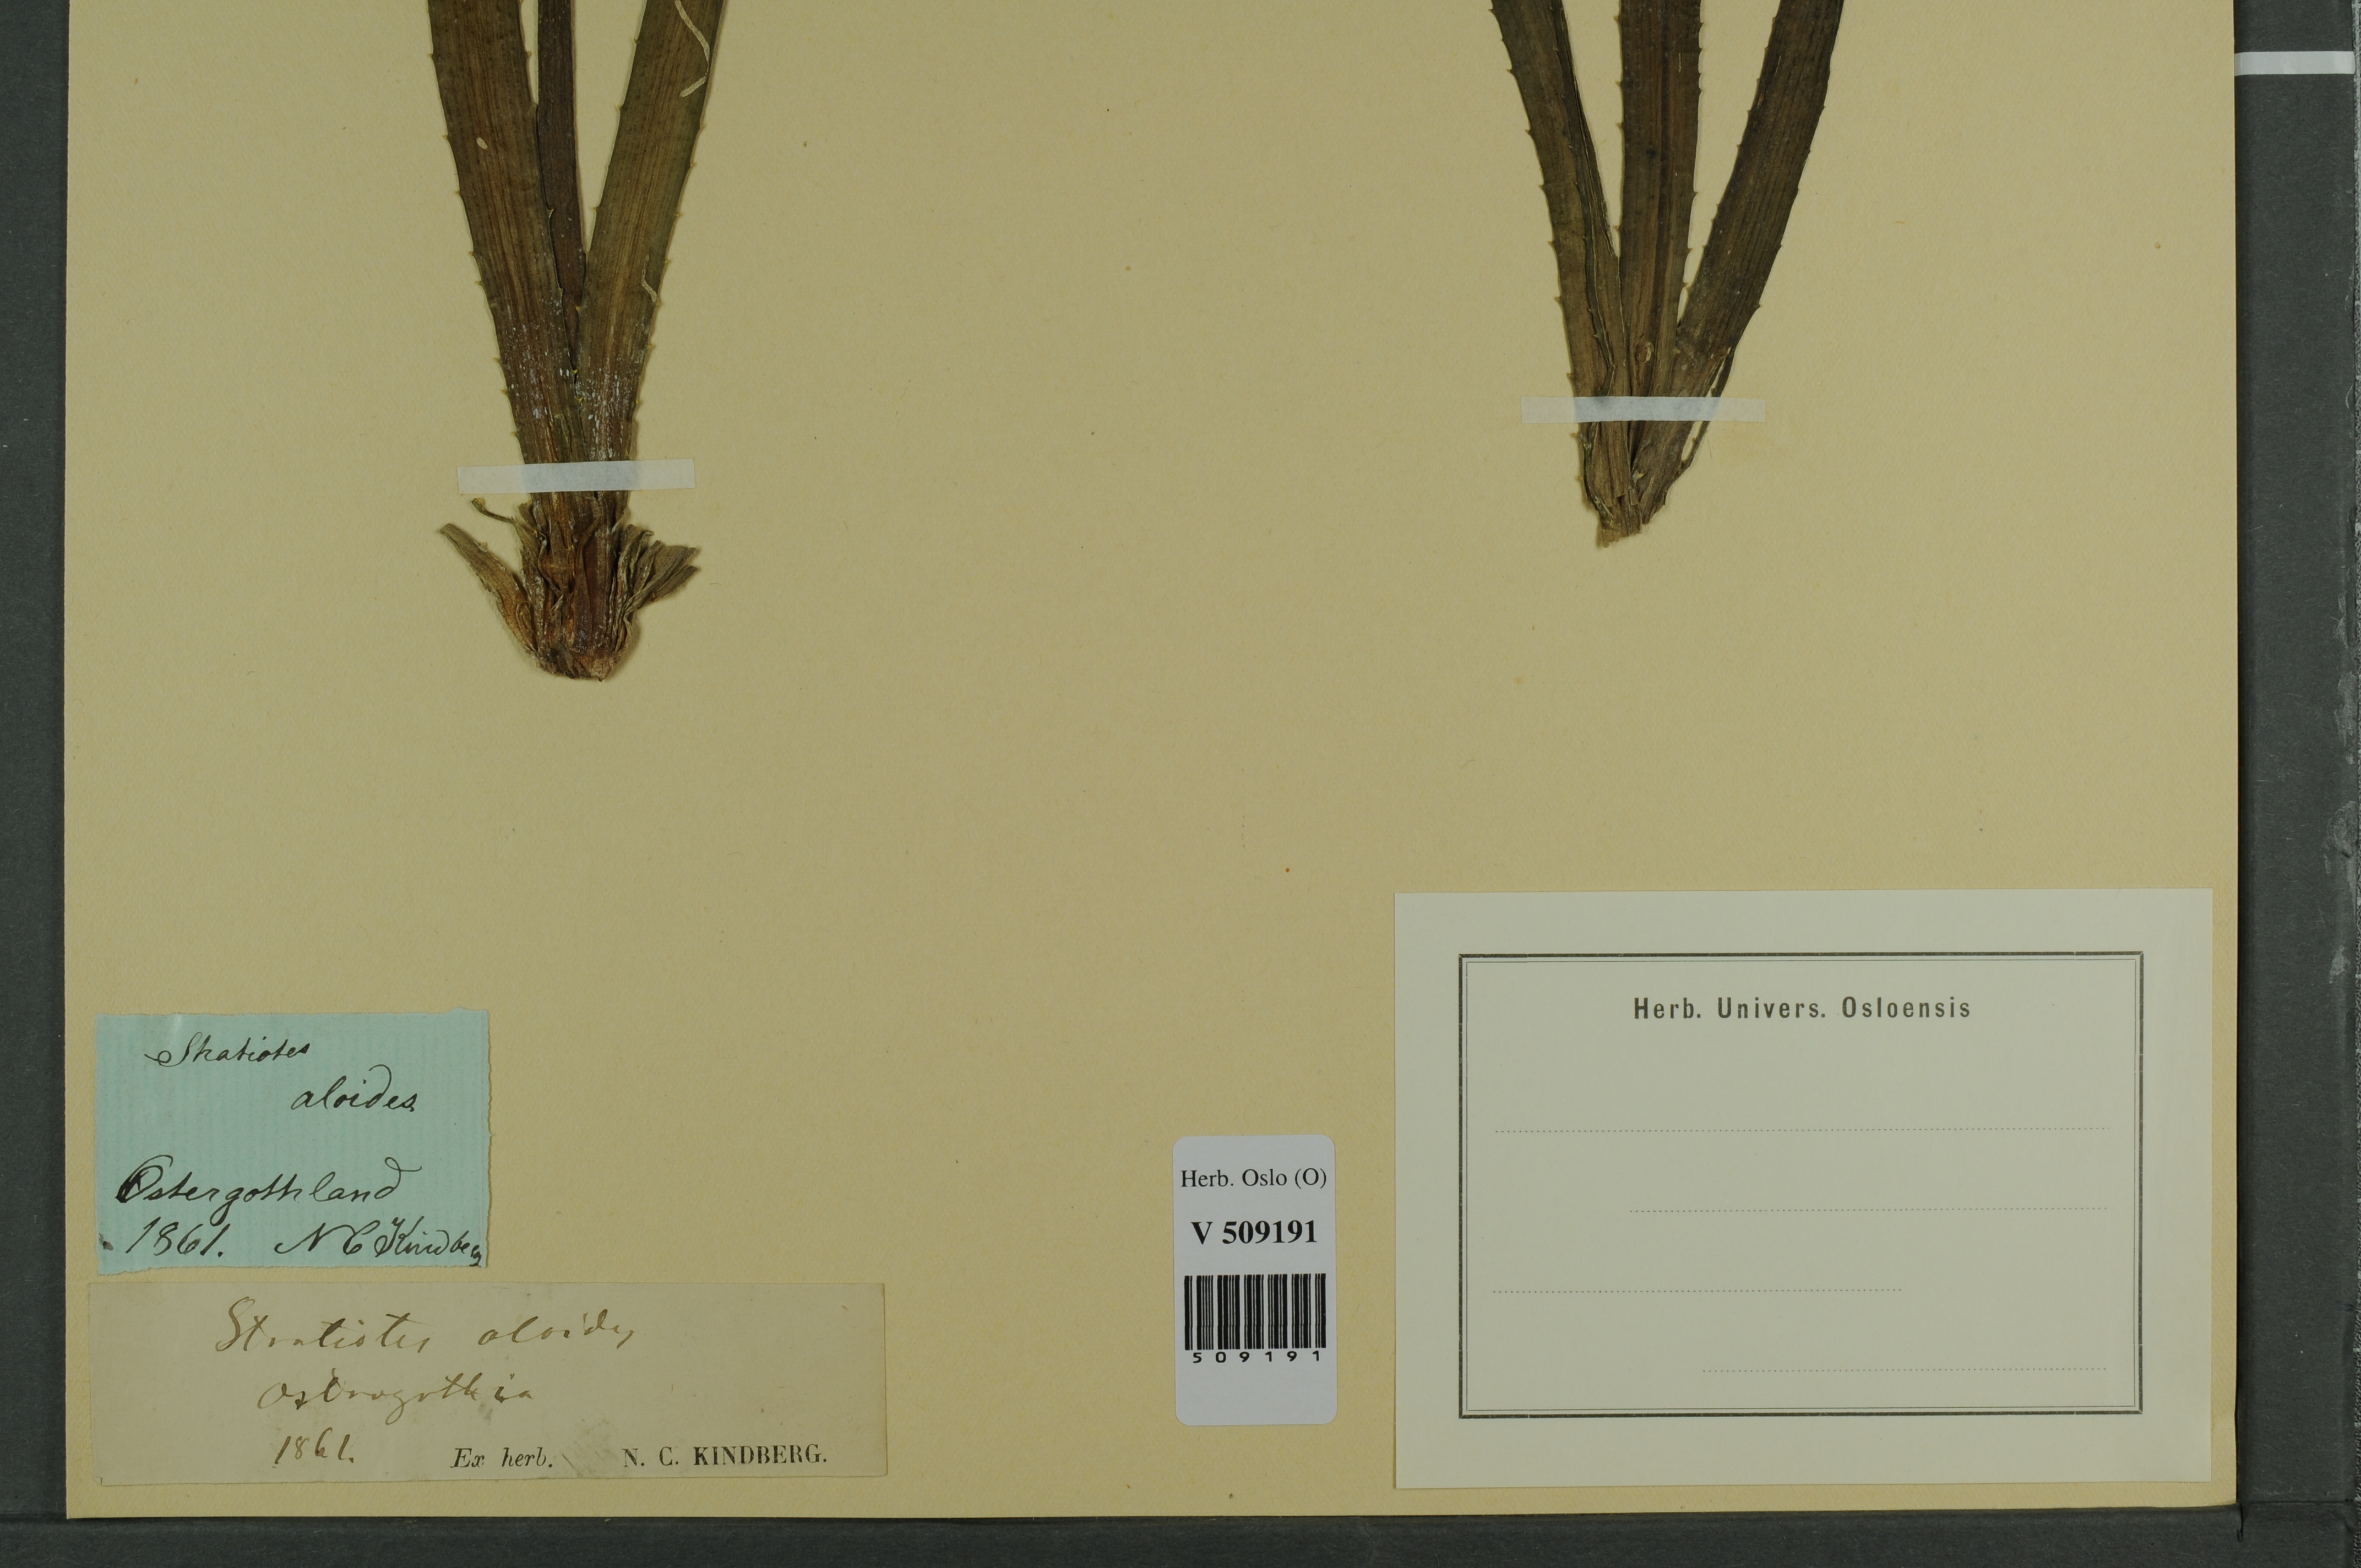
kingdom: Plantae
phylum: Tracheophyta
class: Liliopsida
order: Alismatales
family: Hydrocharitaceae
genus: Stratiotes
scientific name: Stratiotes aloides
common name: Water-soldier
